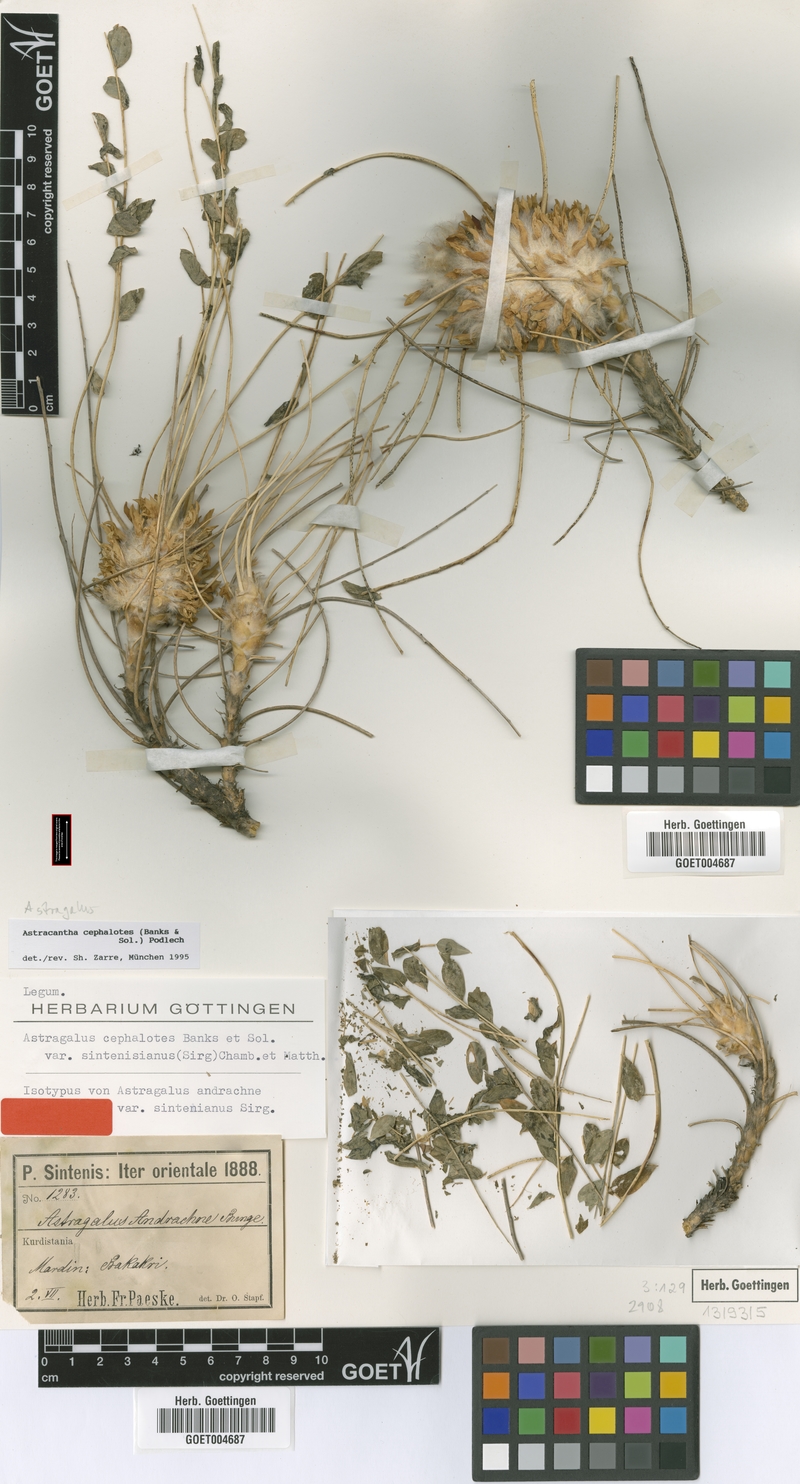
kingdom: Plantae
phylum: Tracheophyta
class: Magnoliopsida
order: Fabales
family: Fabaceae
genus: Astragalus
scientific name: Astragalus cephalotes
